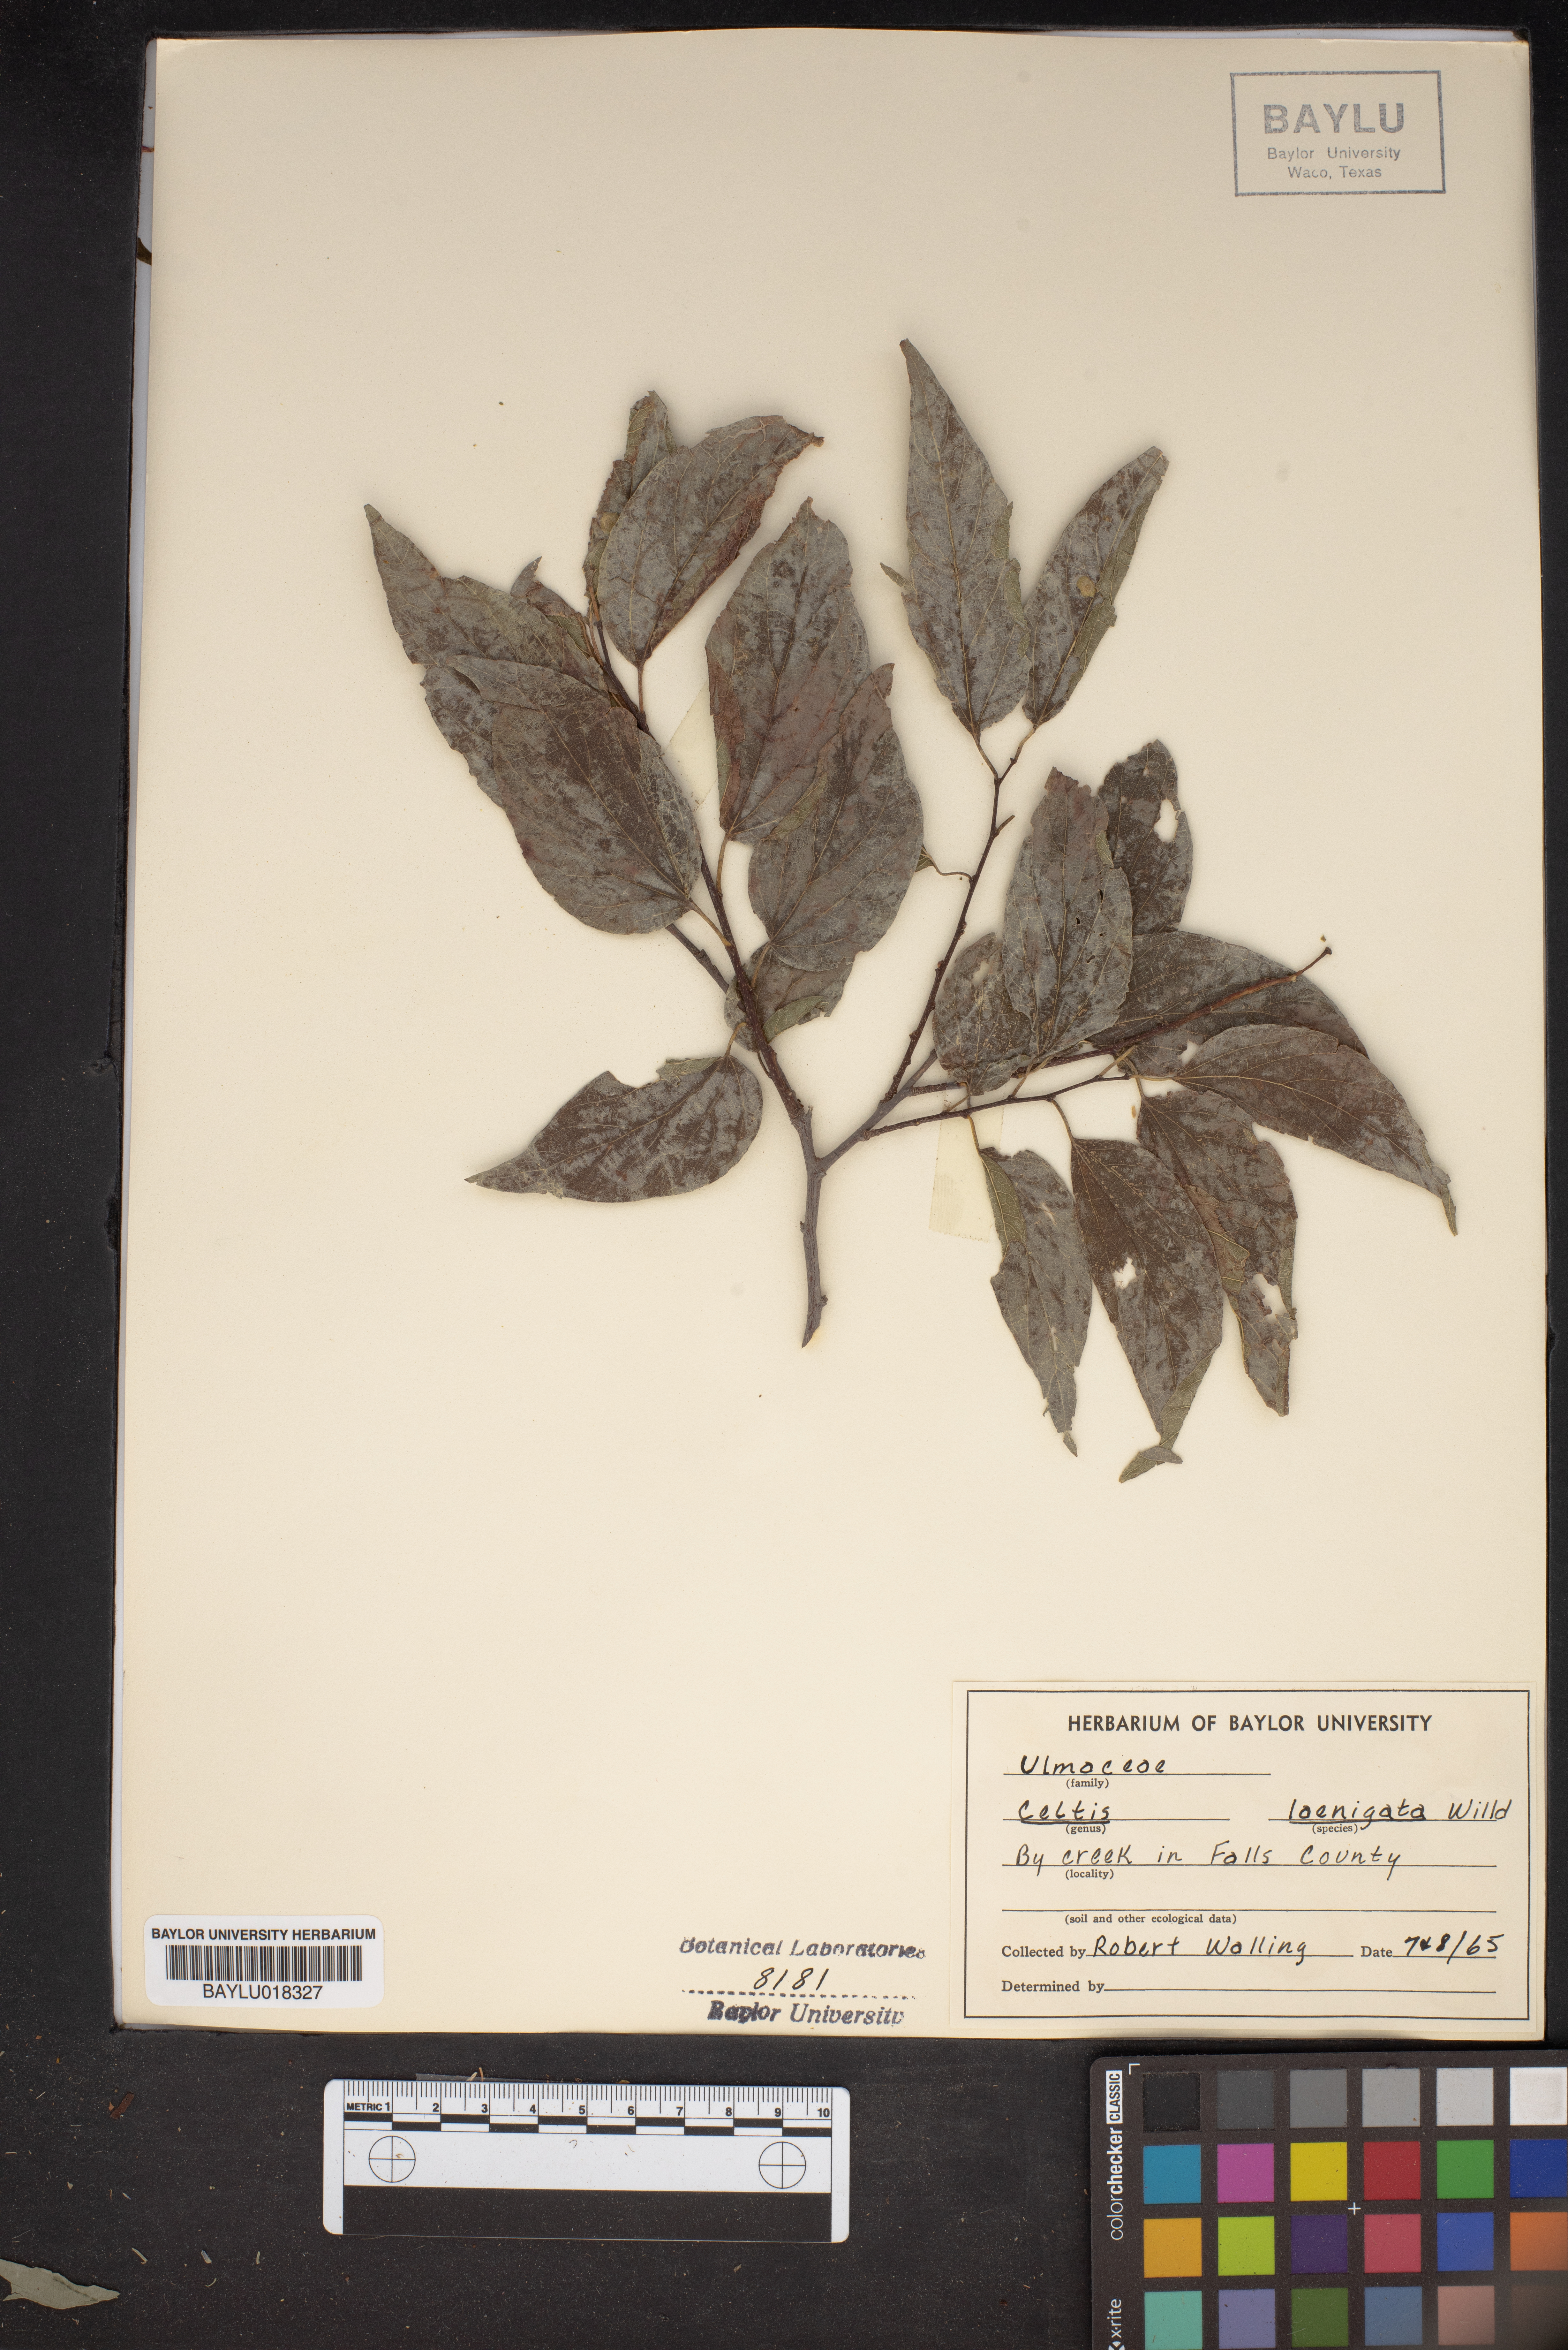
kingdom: Plantae
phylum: Tracheophyta
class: Magnoliopsida
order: Rosales
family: Cannabaceae
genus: Celtis
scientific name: Celtis laevigata
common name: Sugarberry
